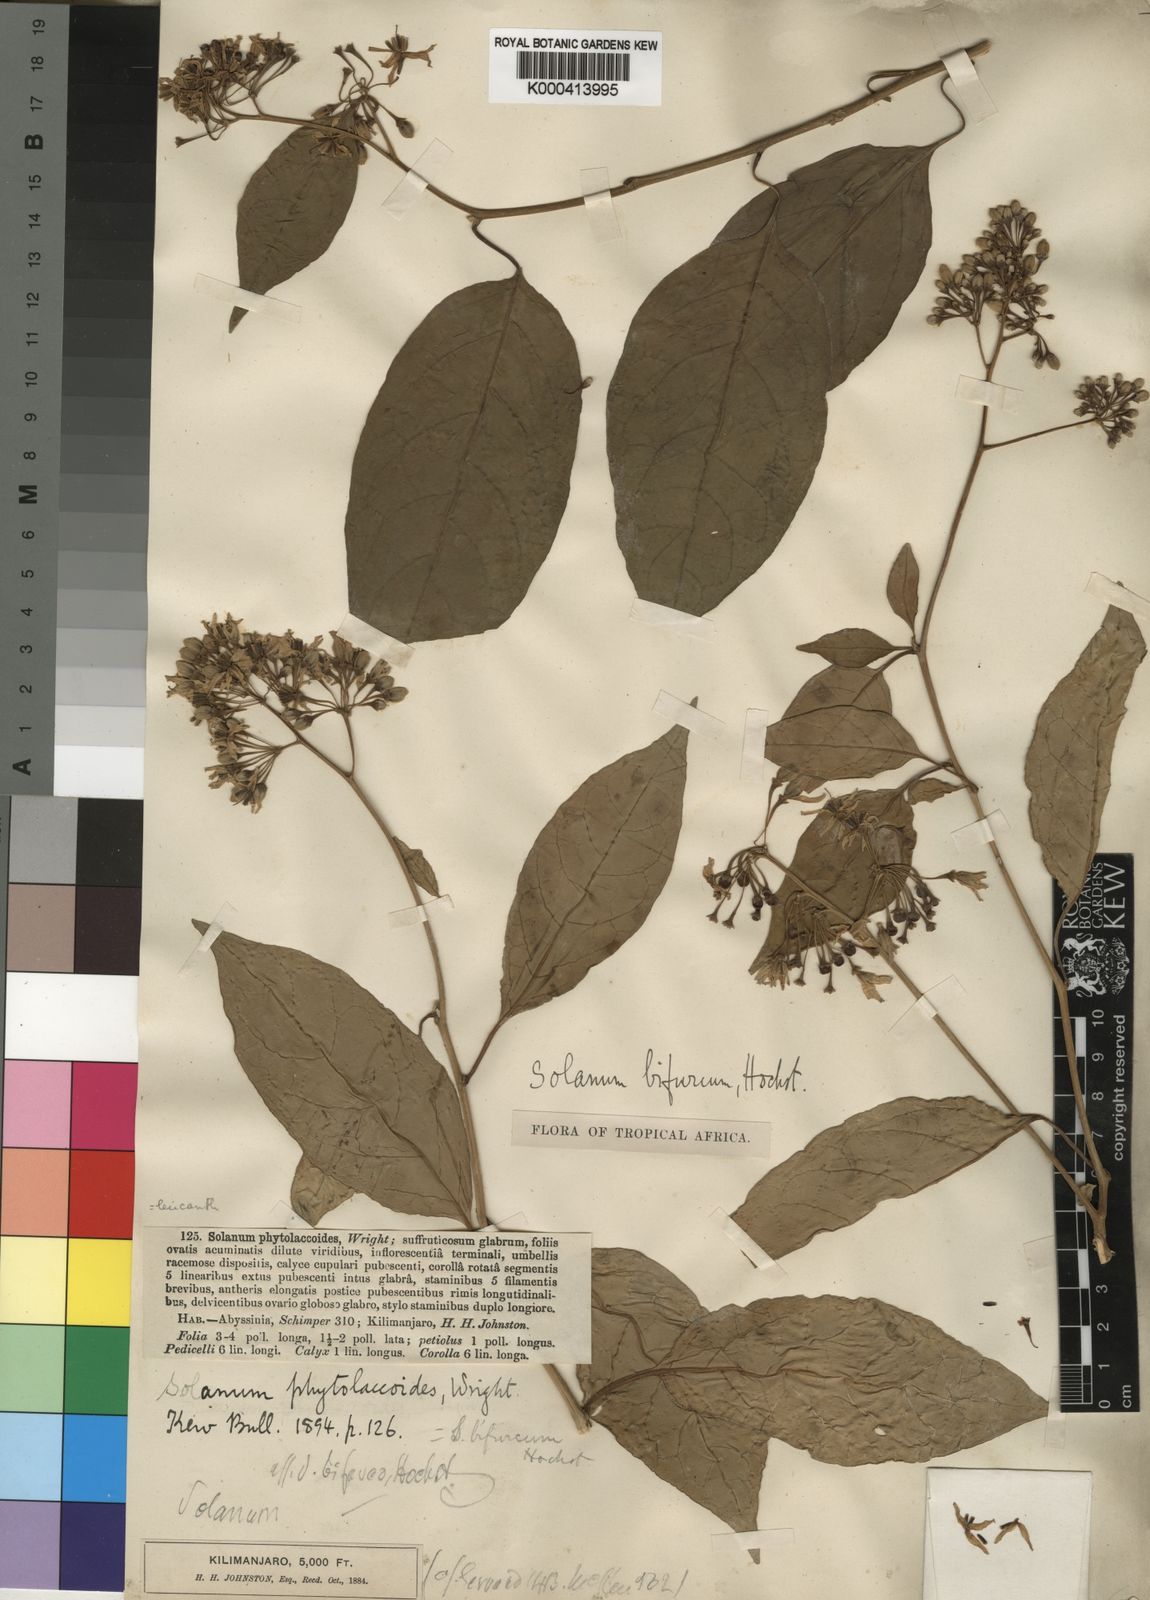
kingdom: Plantae
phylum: Tracheophyta
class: Magnoliopsida
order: Solanales
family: Solanaceae
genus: Solanum
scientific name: Solanum terminale
